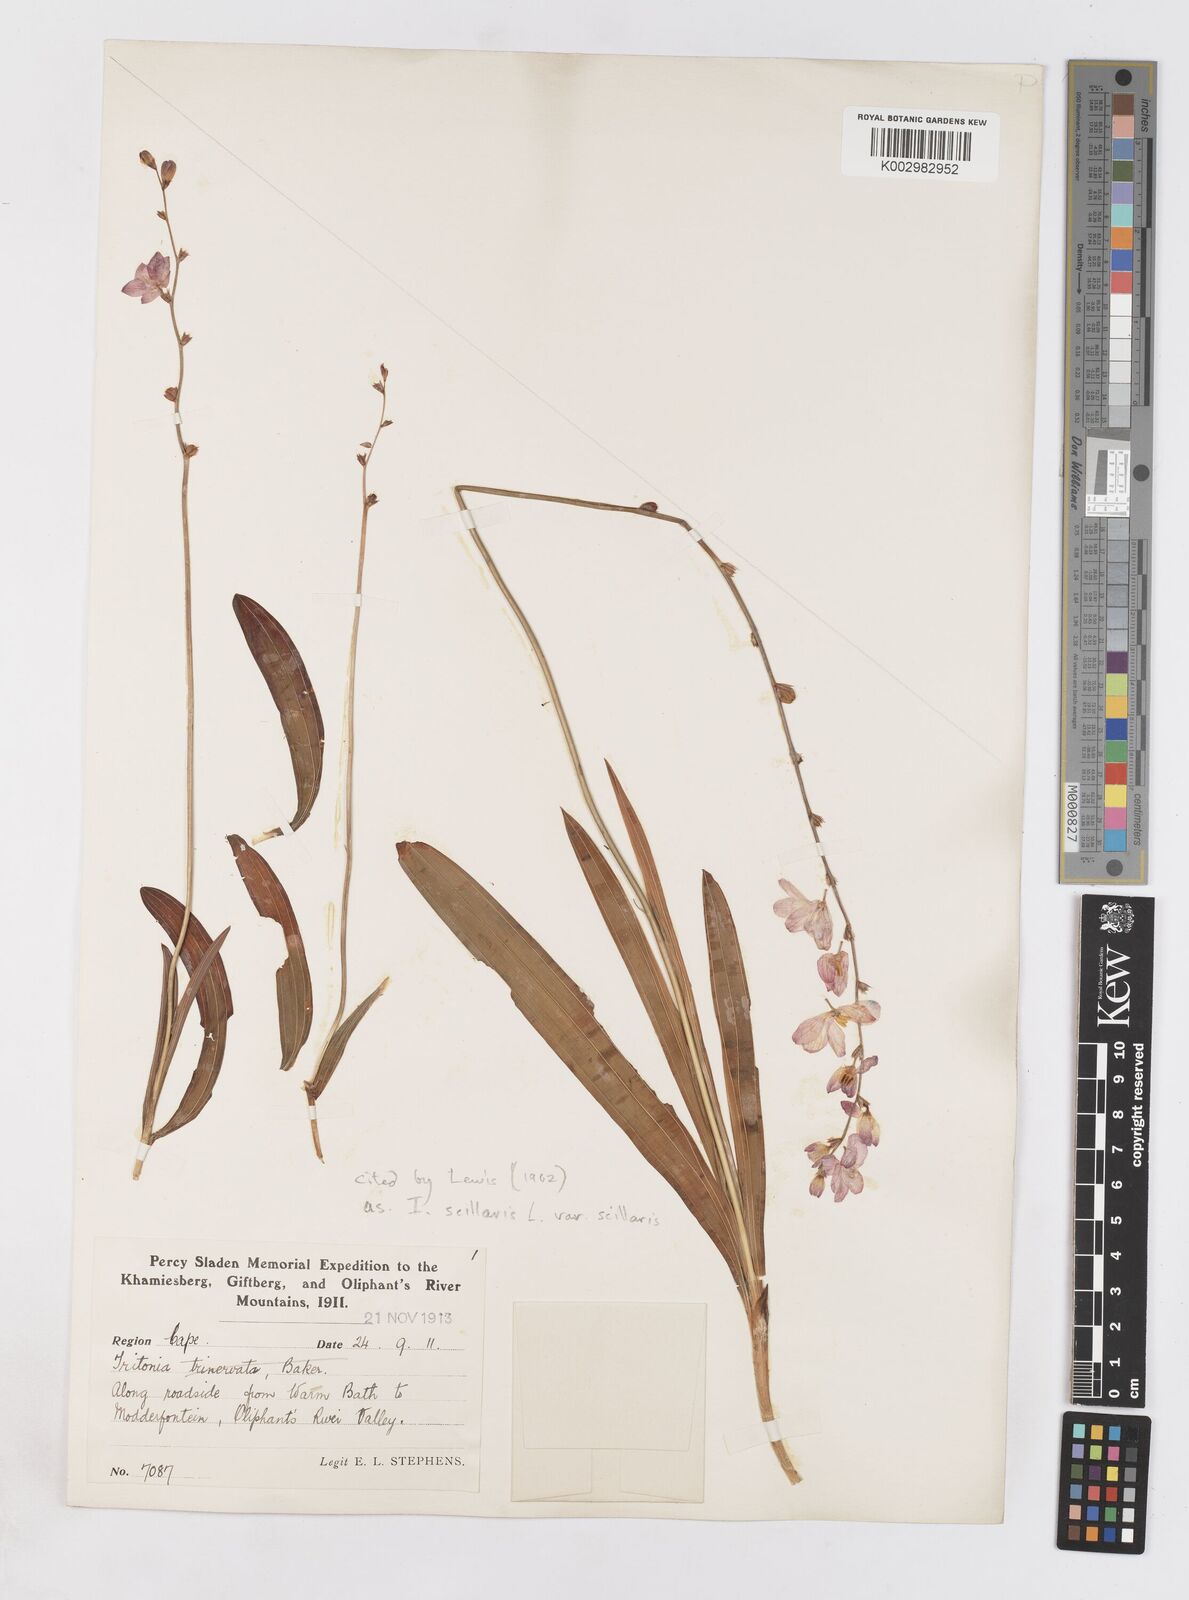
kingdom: Plantae
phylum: Tracheophyta
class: Liliopsida
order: Asparagales
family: Iridaceae
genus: Ixia
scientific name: Ixia scillaris
